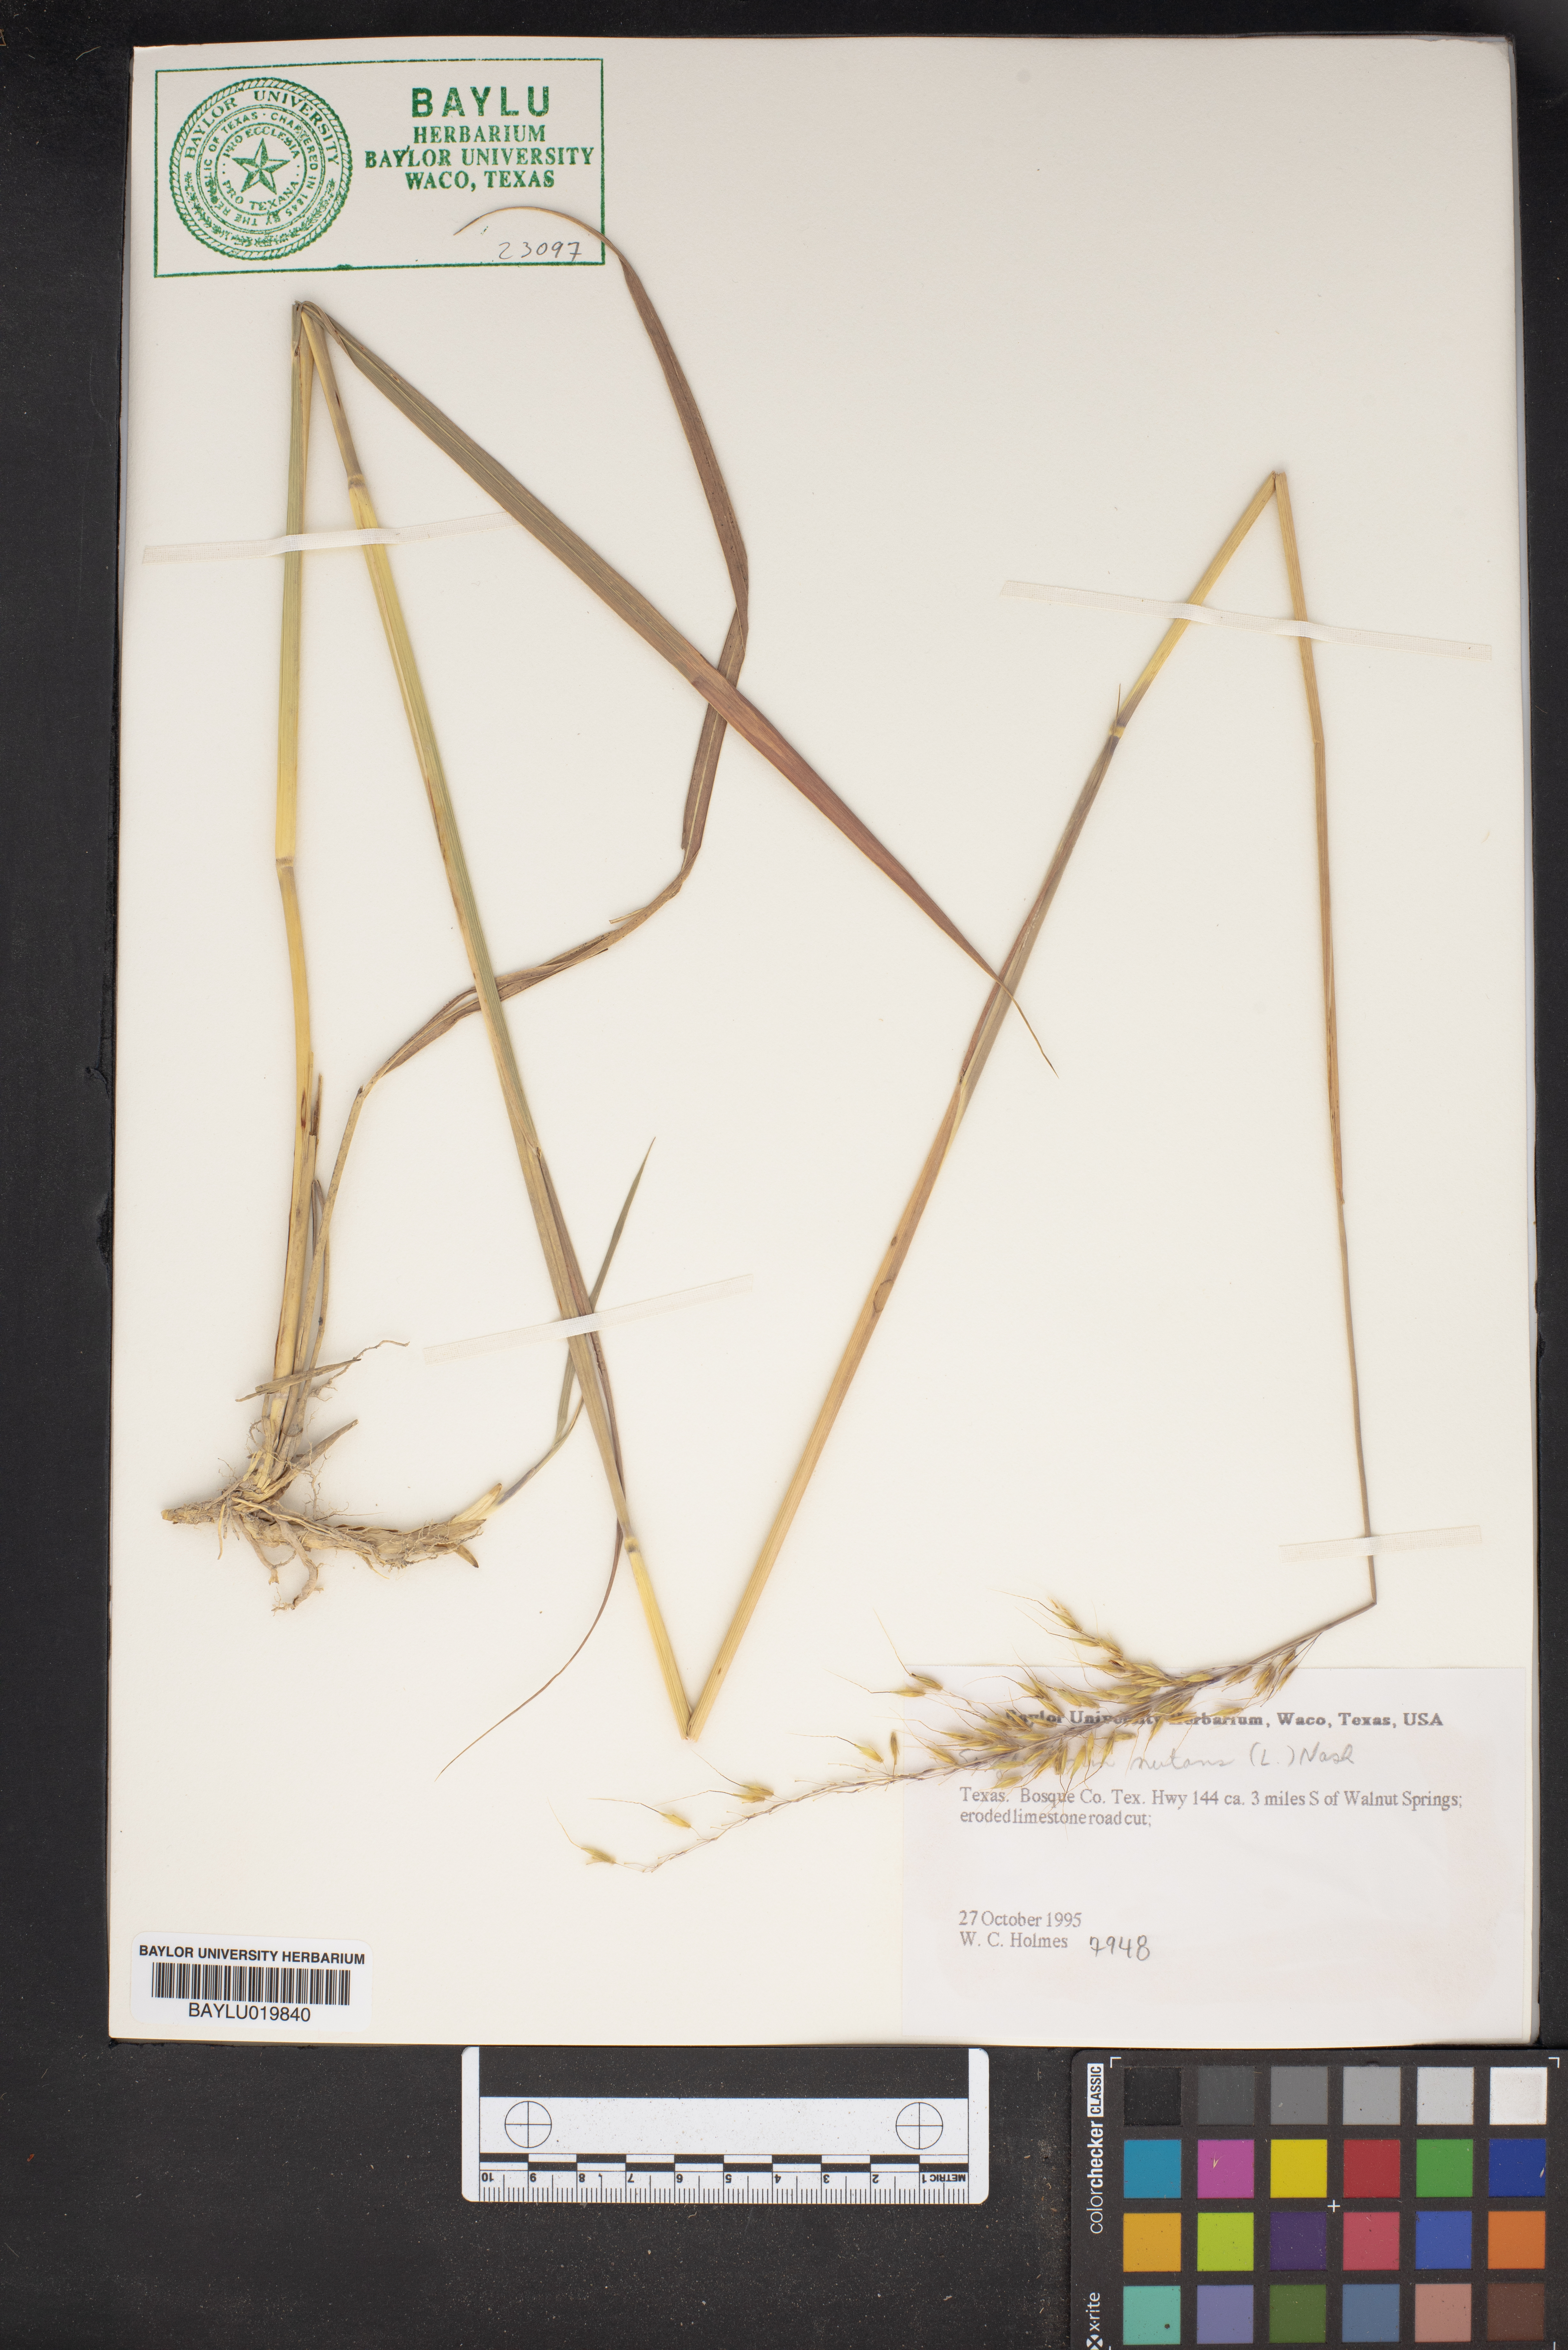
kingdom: Plantae
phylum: Tracheophyta
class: Liliopsida
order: Poales
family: Poaceae
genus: Sorghastrum
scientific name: Sorghastrum nutans
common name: Indian grass
